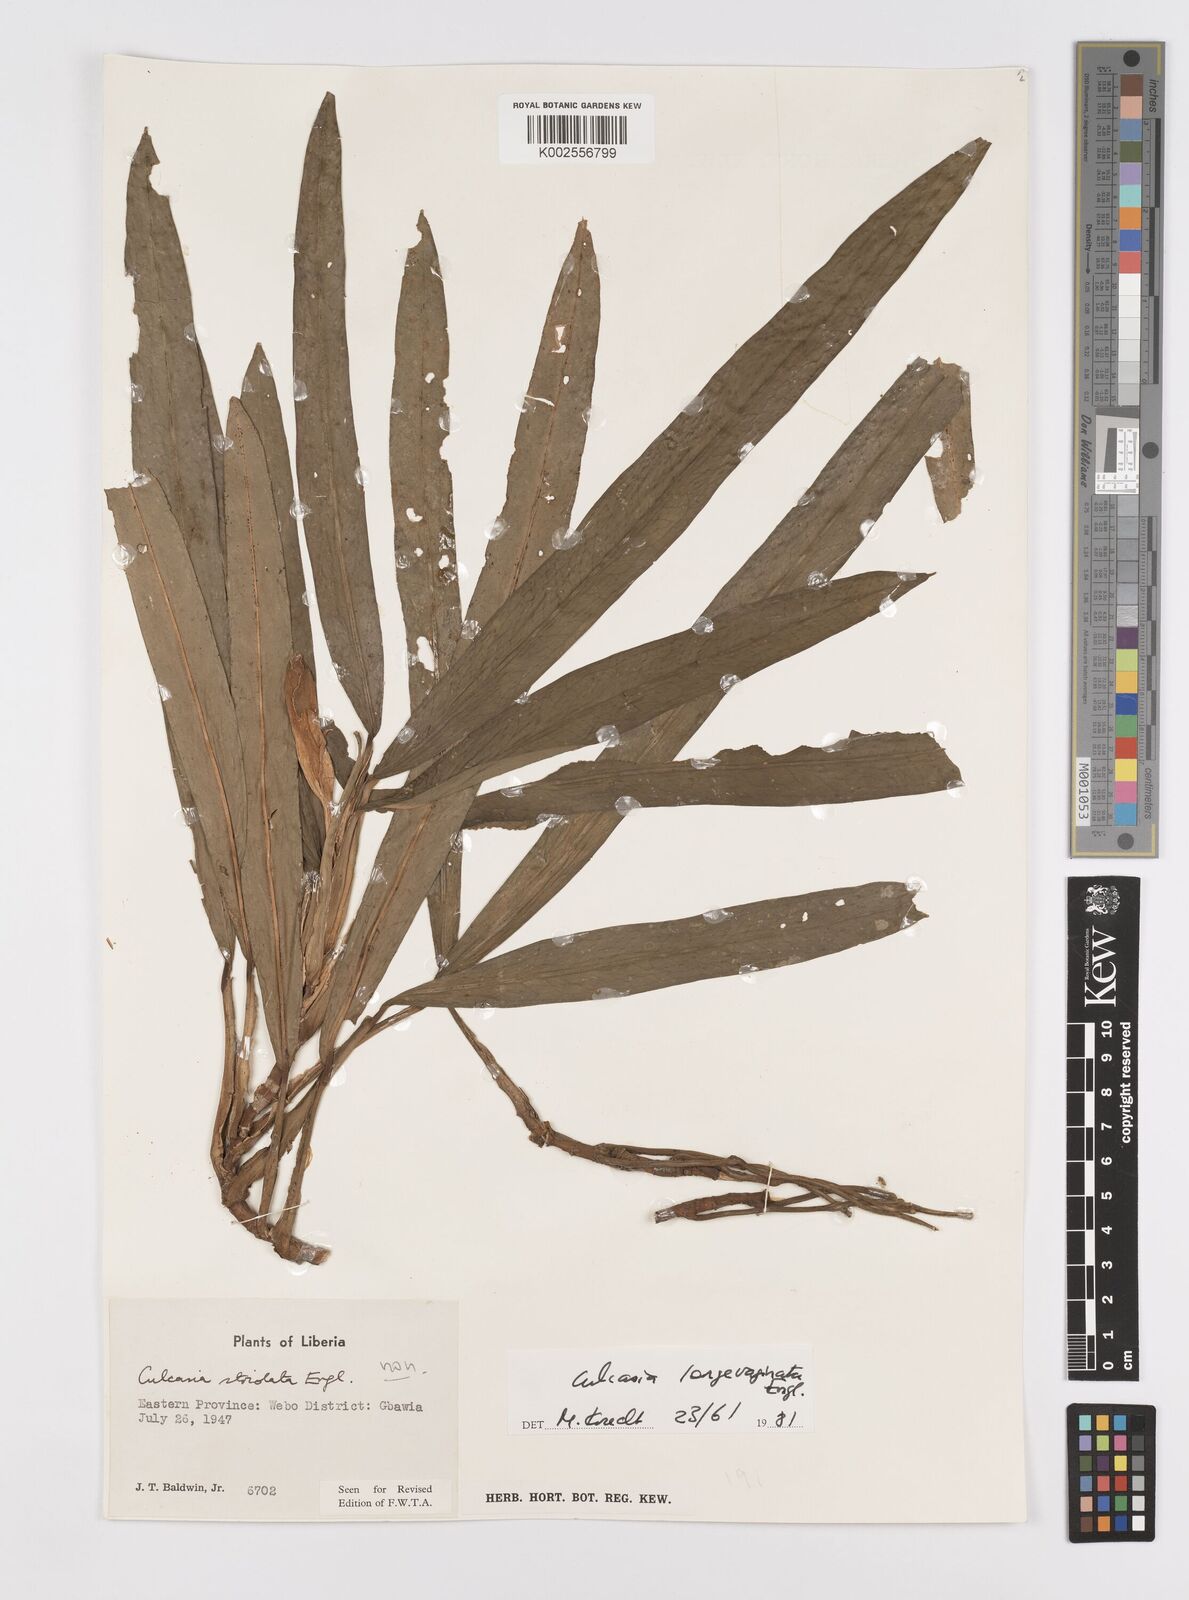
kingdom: Plantae
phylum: Tracheophyta
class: Liliopsida
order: Alismatales
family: Araceae
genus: Culcasia
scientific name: Culcasia striolata
